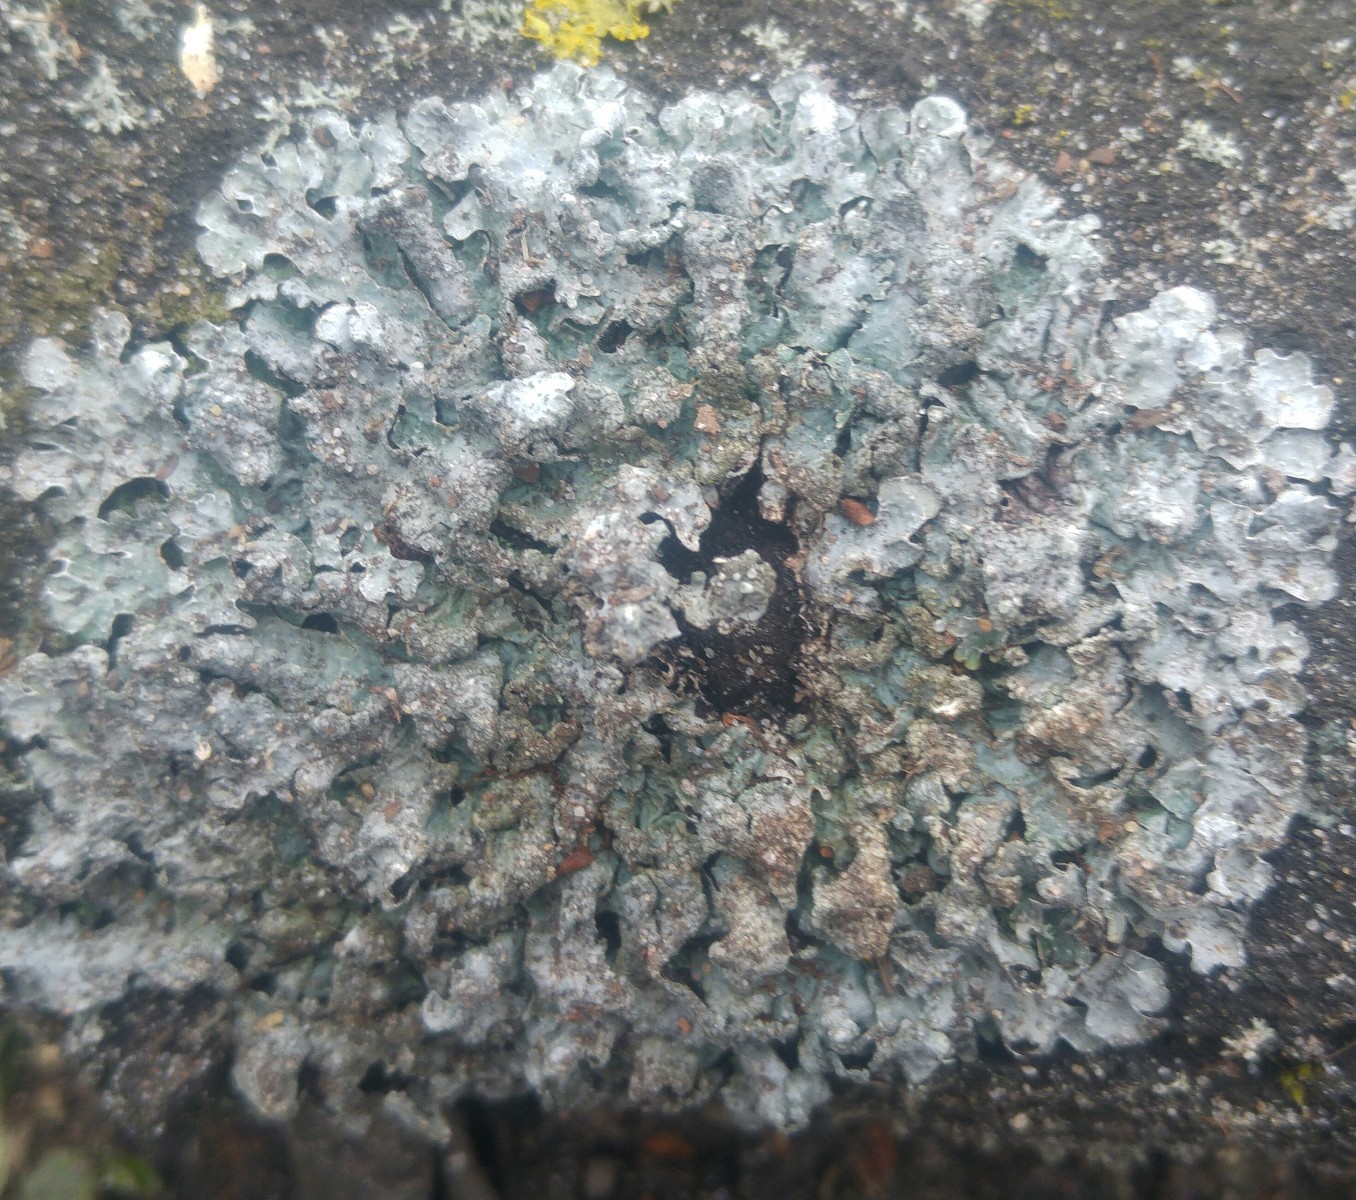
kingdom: Fungi
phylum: Ascomycota
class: Lecanoromycetes
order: Lecanorales
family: Parmeliaceae
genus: Parmelia
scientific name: Parmelia sulcata
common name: rynket skållav
